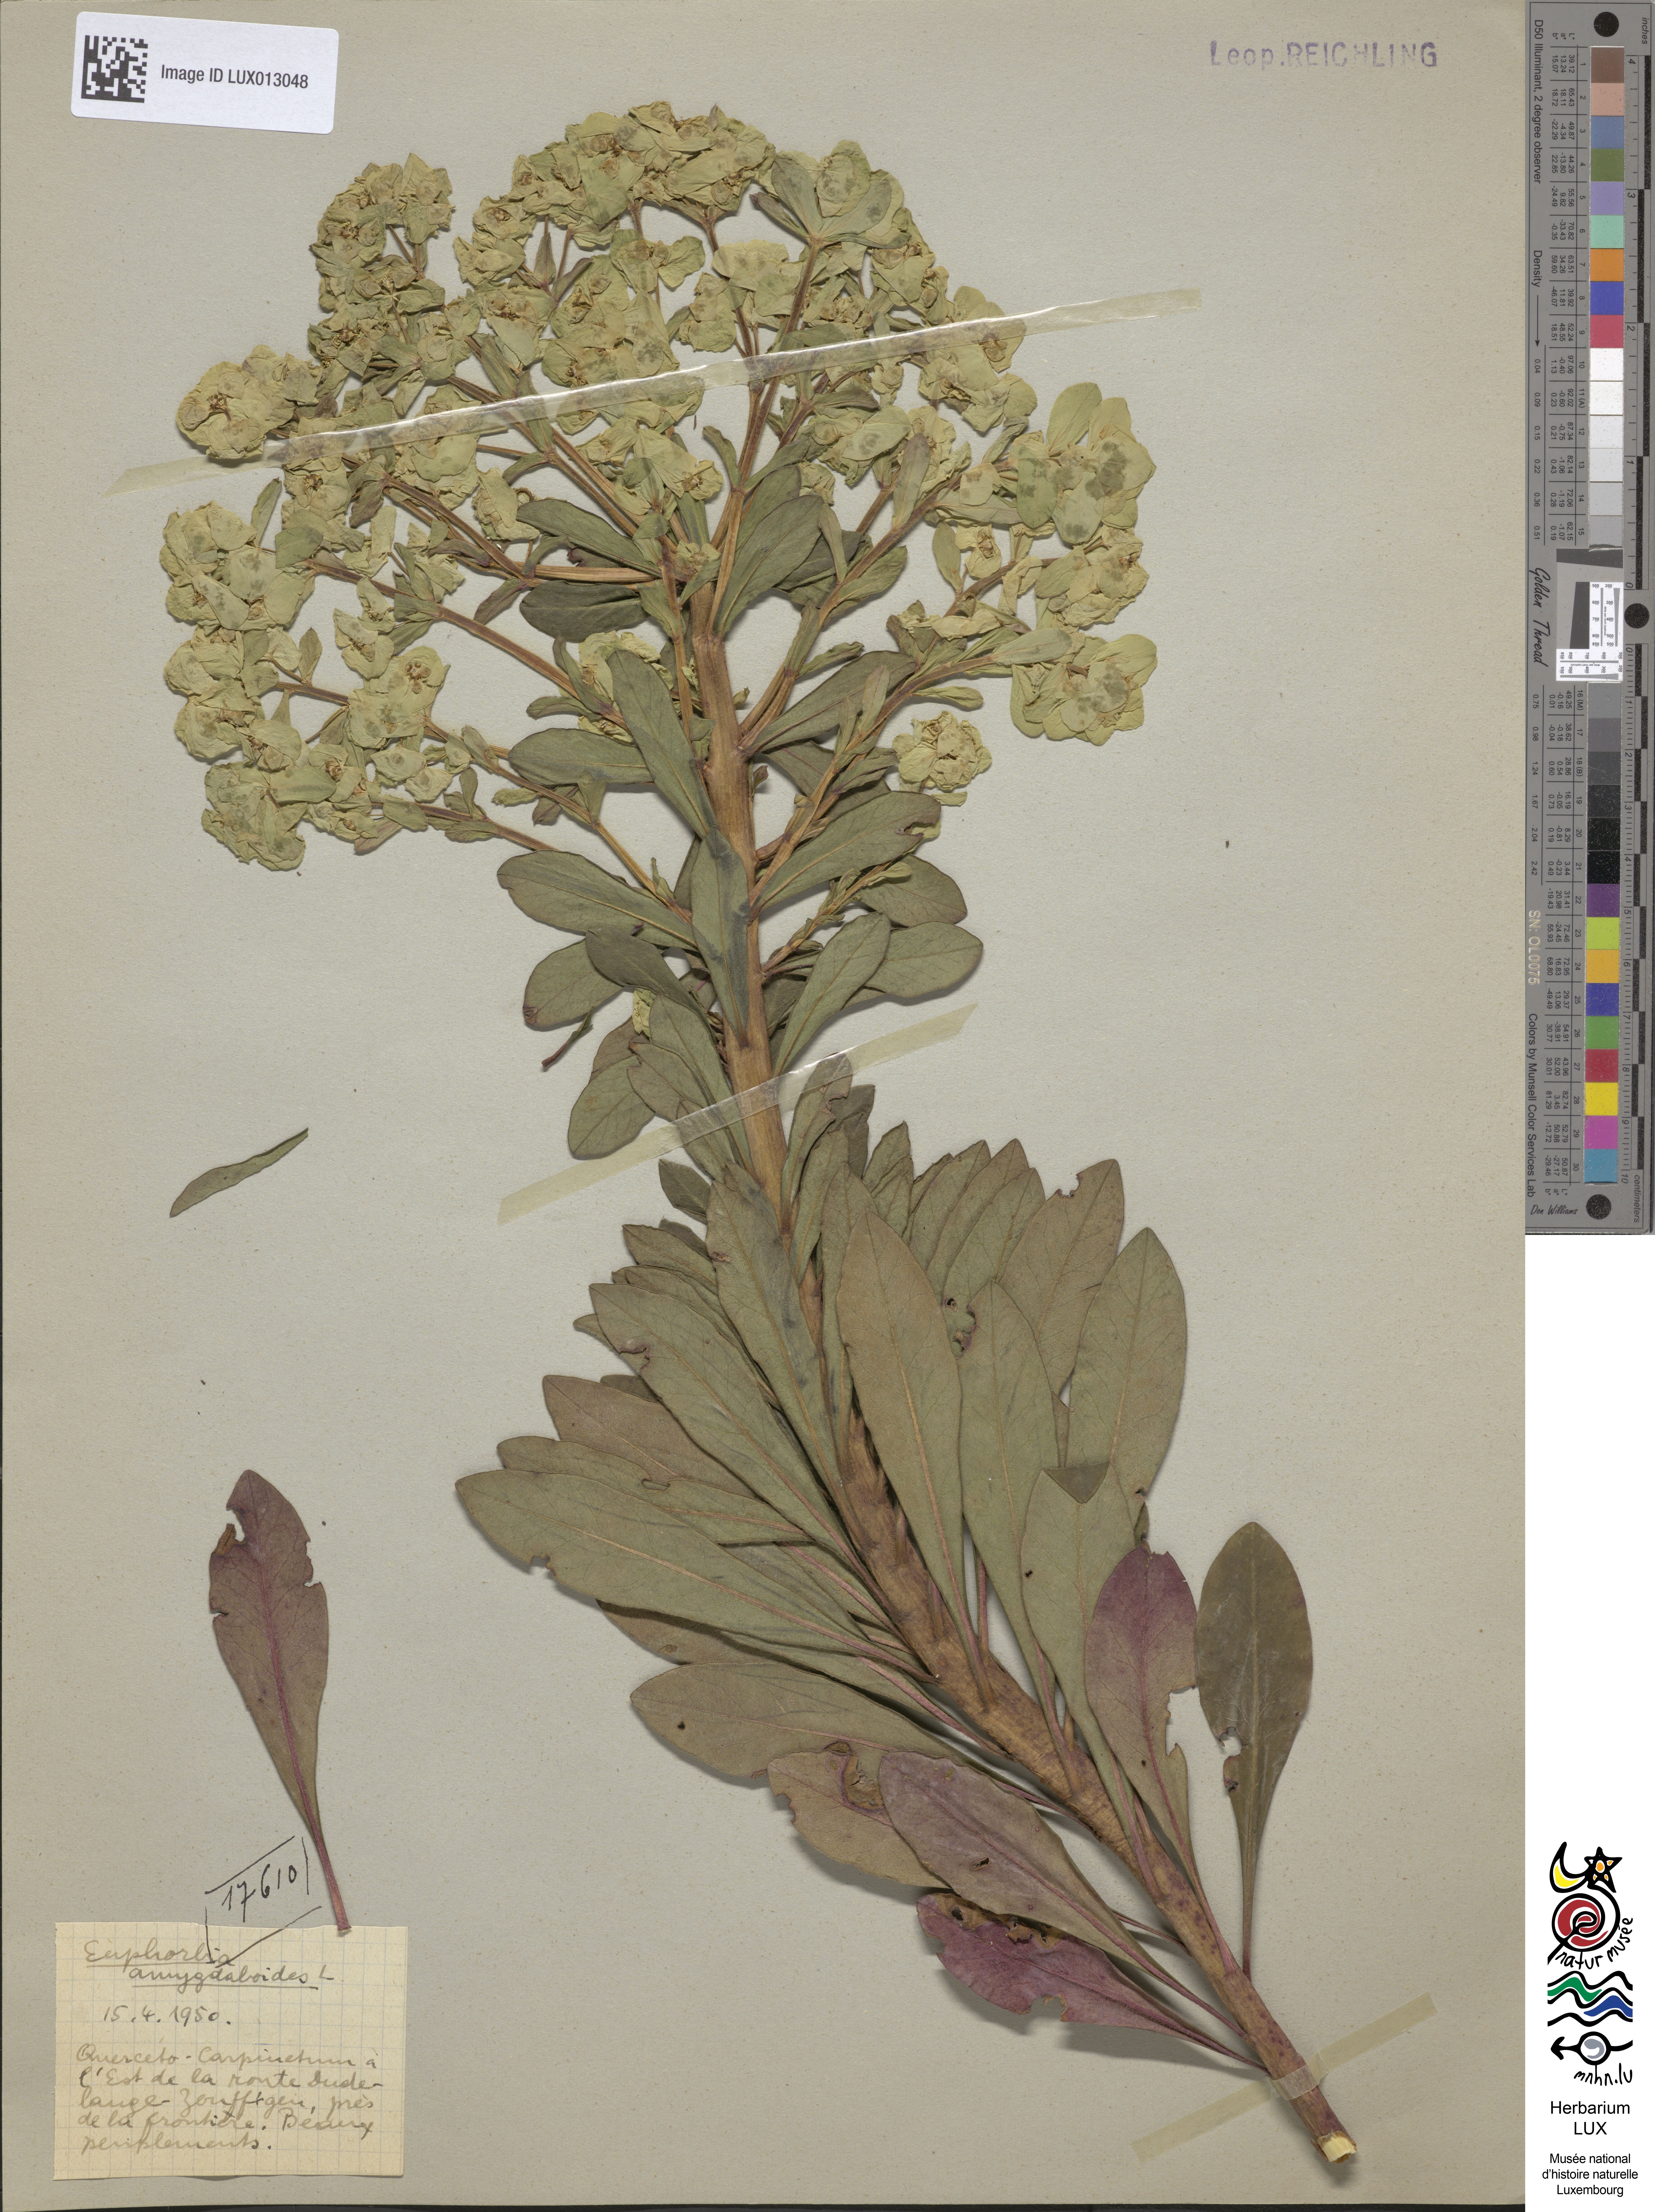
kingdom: Plantae
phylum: Tracheophyta
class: Magnoliopsida
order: Malpighiales
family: Euphorbiaceae
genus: Euphorbia
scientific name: Euphorbia amygdaloides
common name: Wood spurge
